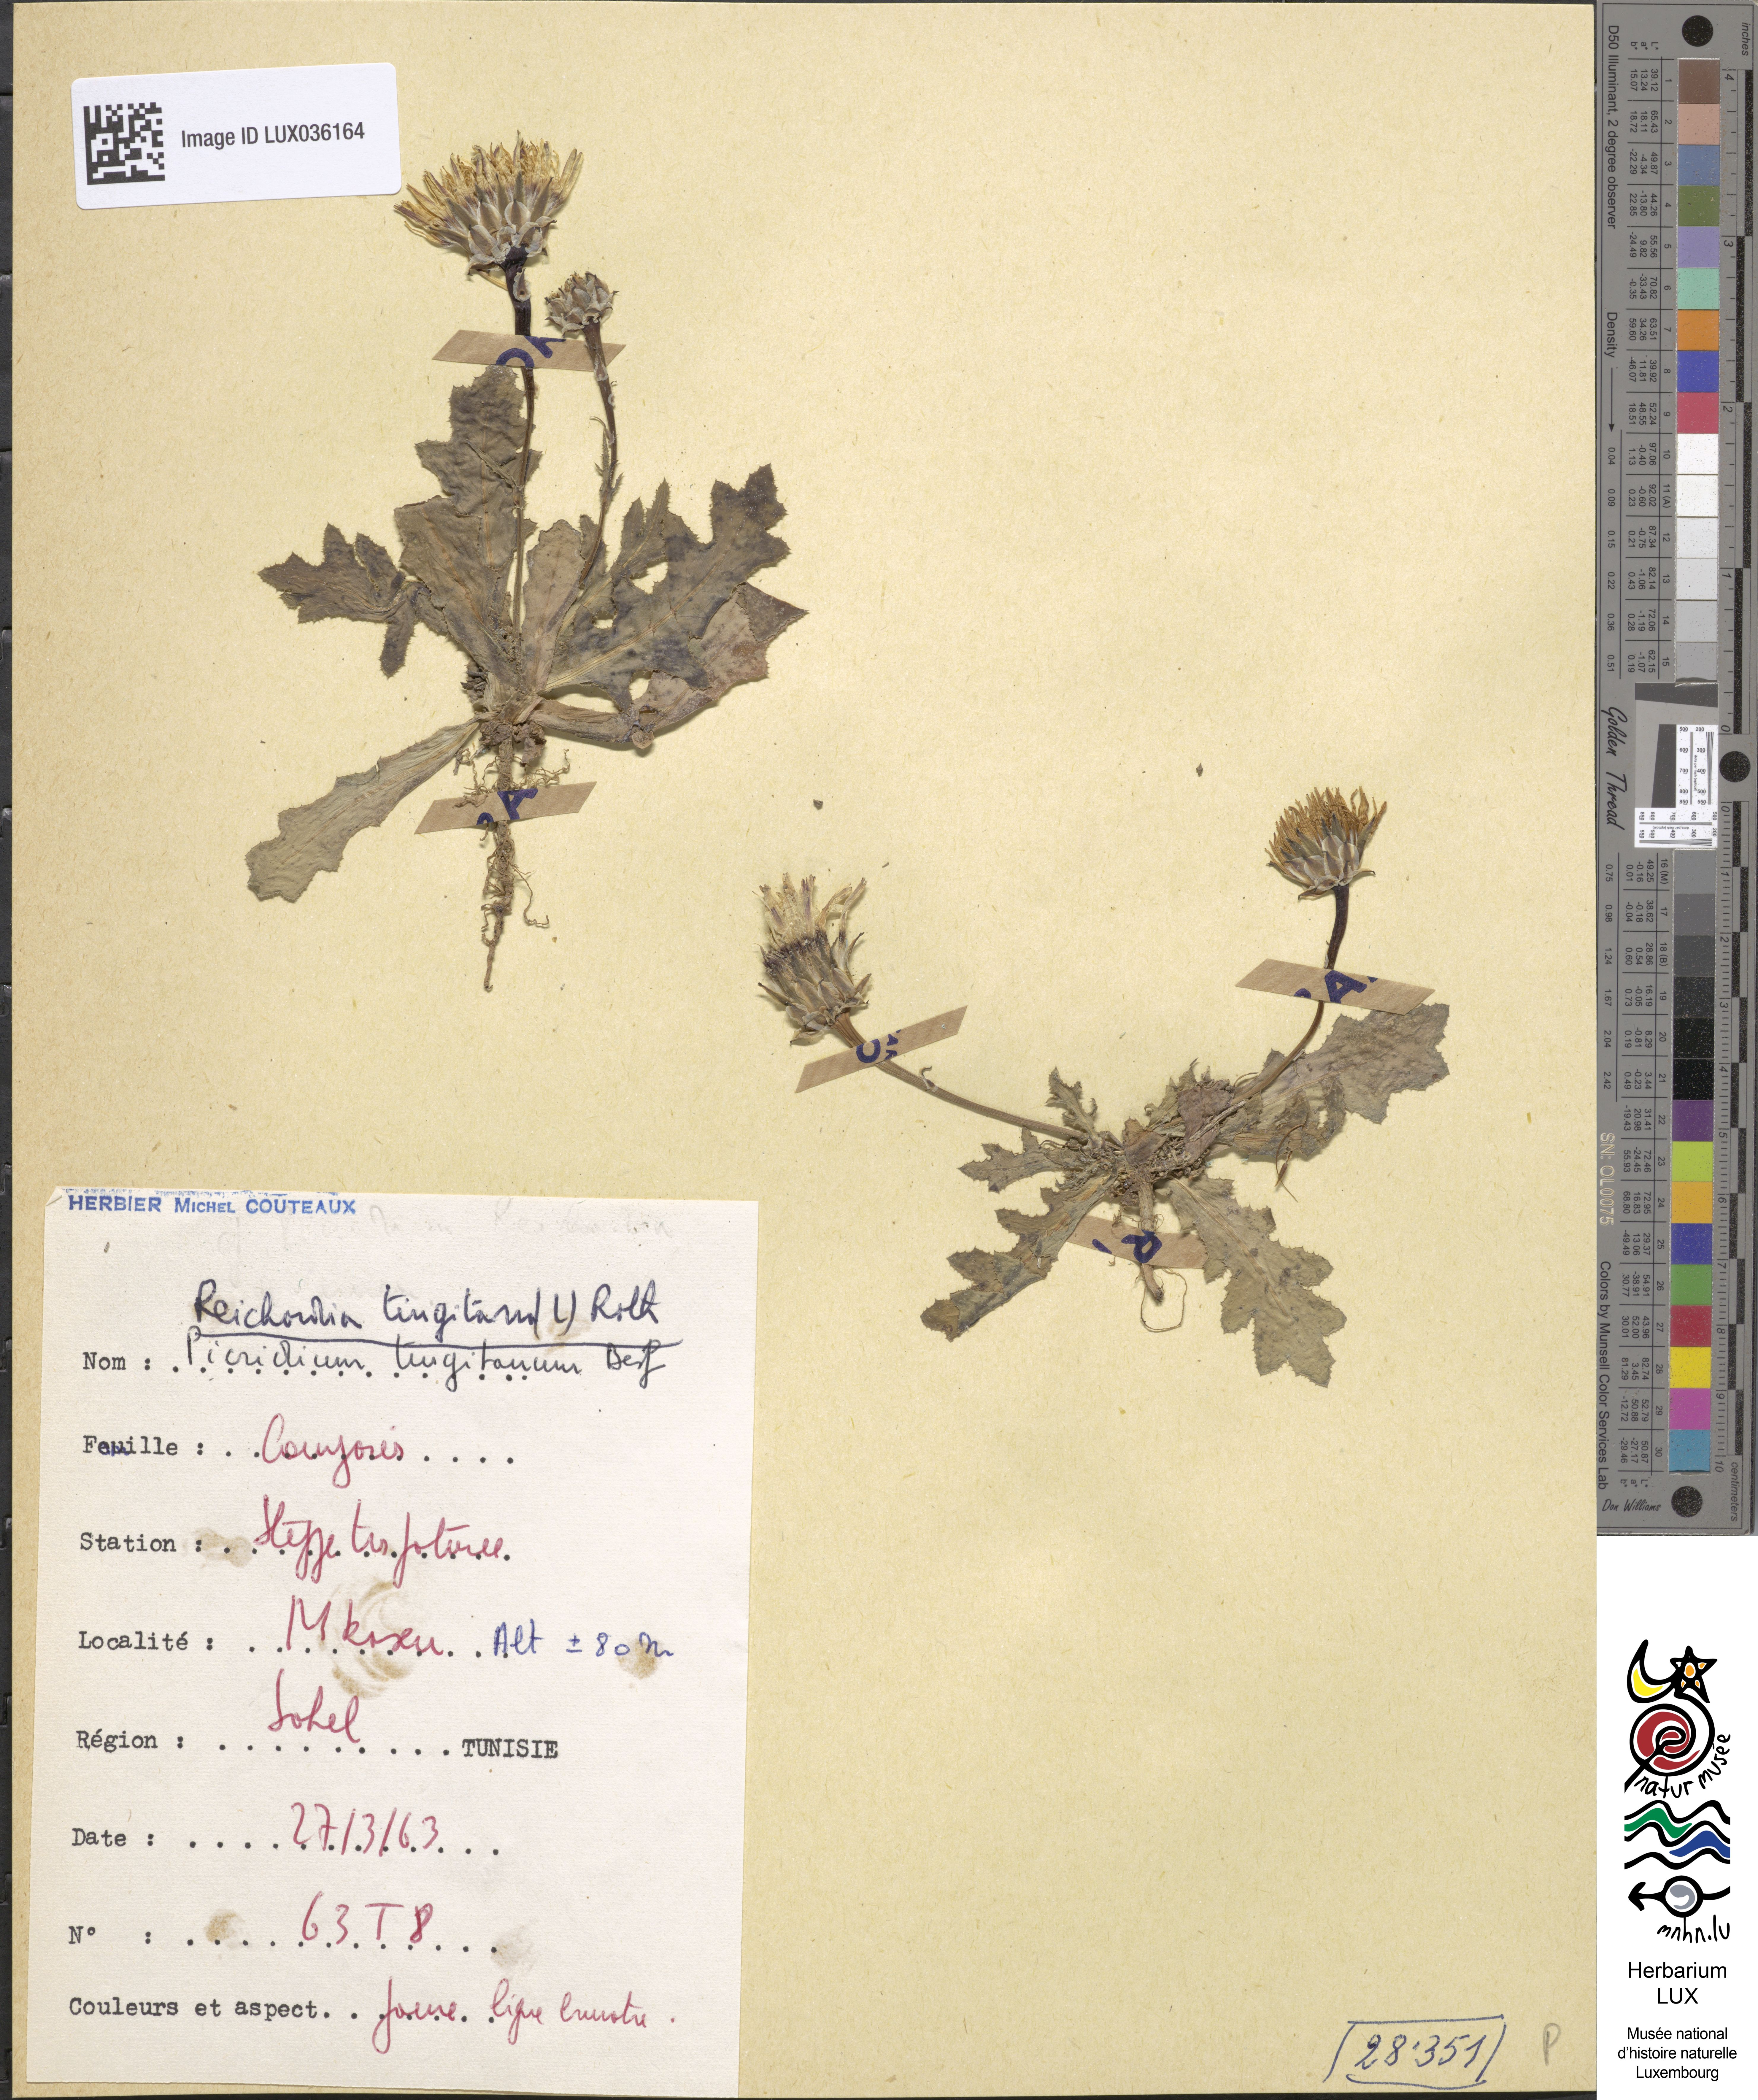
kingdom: Plantae
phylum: Tracheophyta
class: Magnoliopsida
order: Asterales
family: Asteraceae
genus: Reichardia
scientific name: Reichardia tingitana
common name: Reichardia
